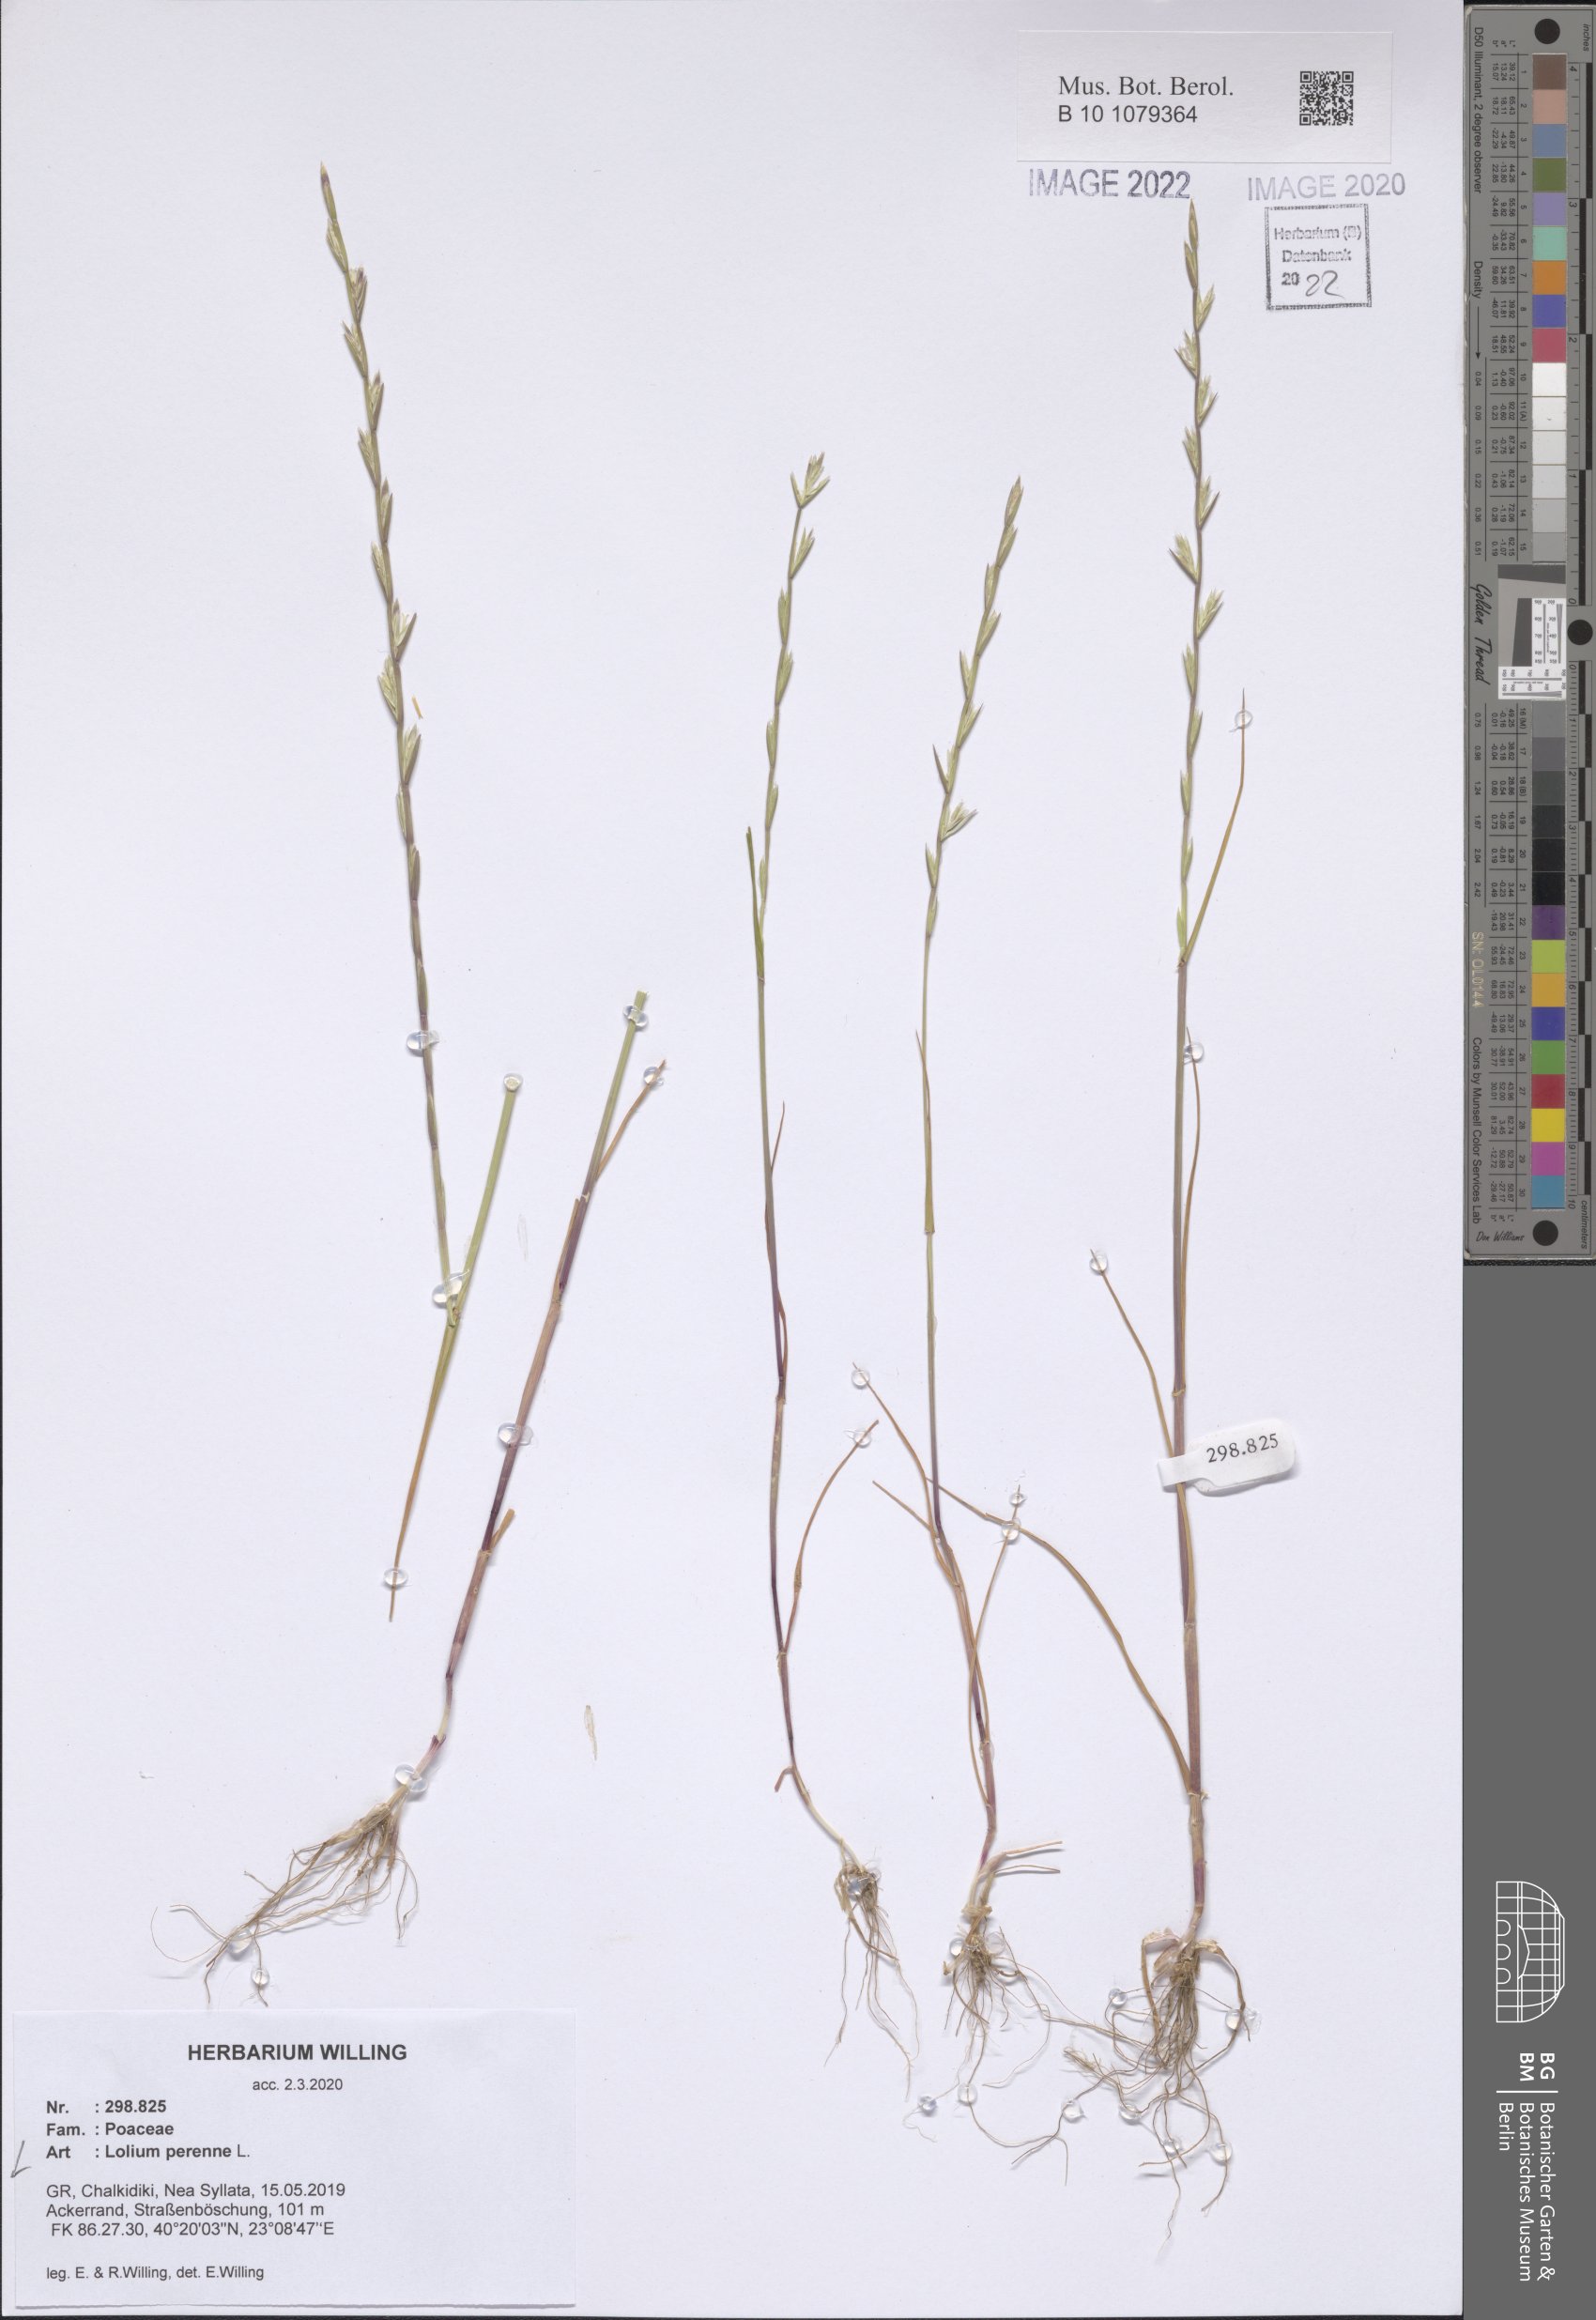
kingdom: Plantae
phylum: Tracheophyta
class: Liliopsida
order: Poales
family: Poaceae
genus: Lolium
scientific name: Lolium perenne
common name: Perennial ryegrass
